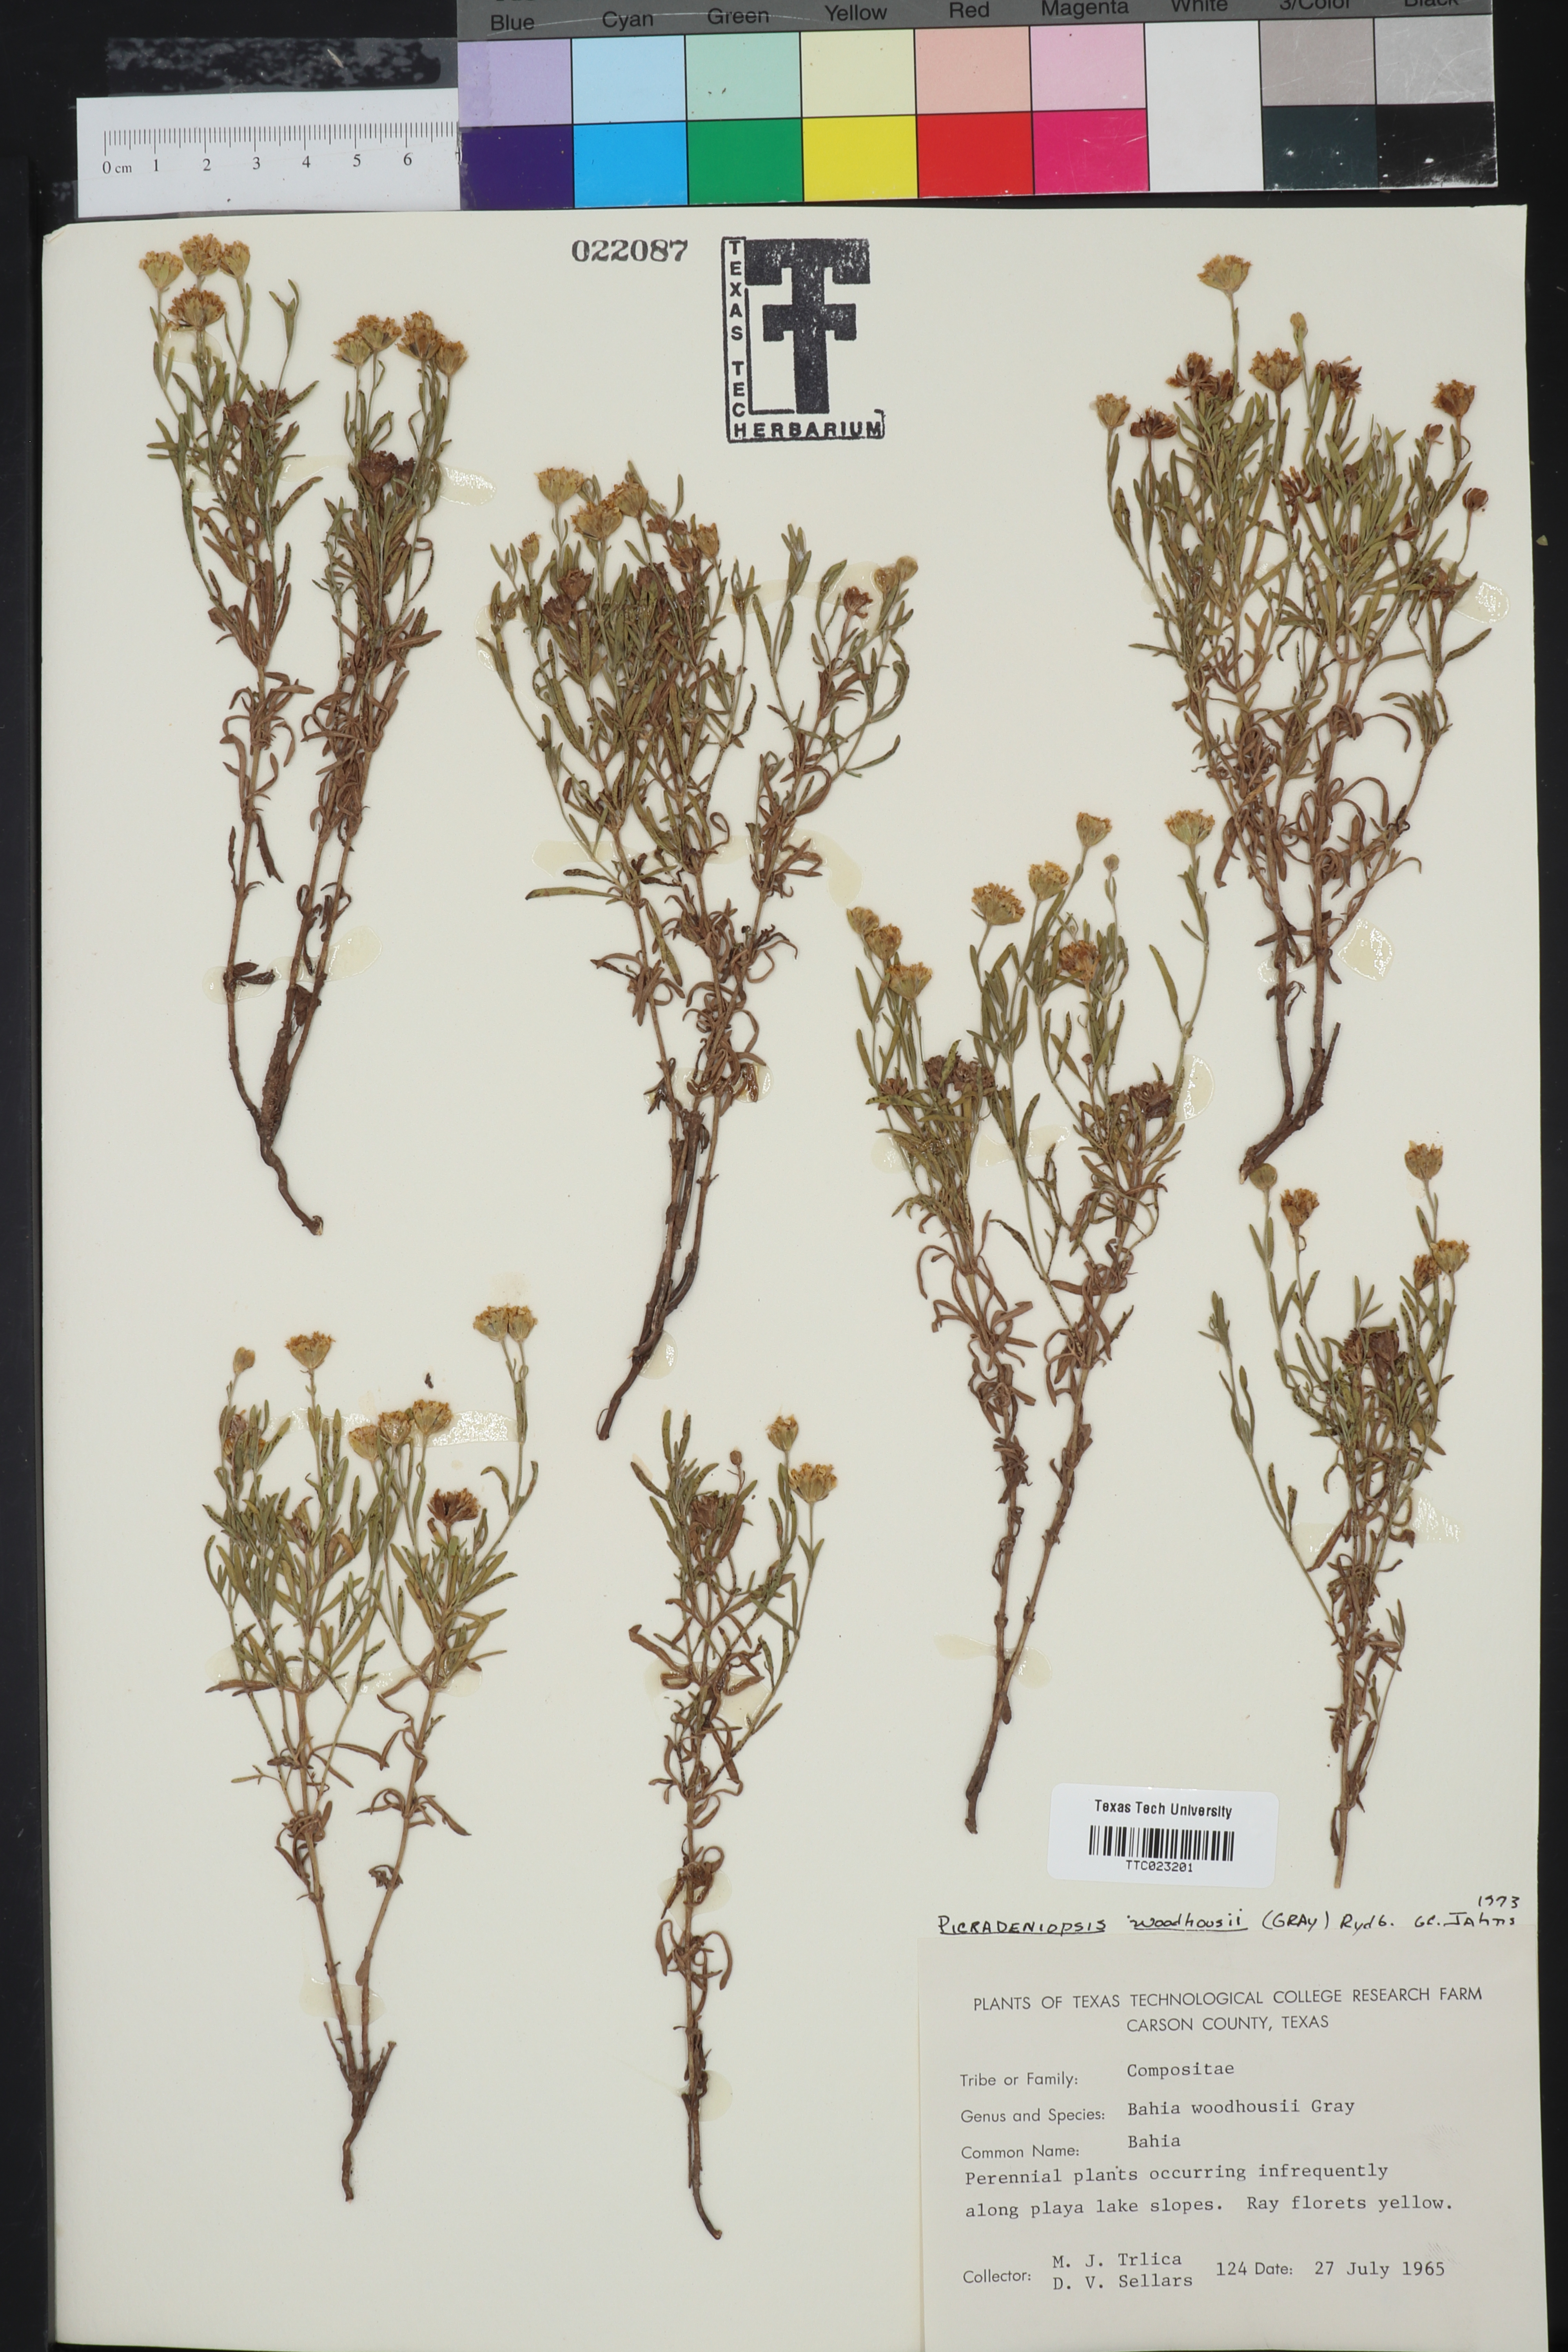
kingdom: Plantae
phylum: Tracheophyta
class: Magnoliopsida
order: Asterales
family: Asteraceae
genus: Picradeniopsis
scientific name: Picradeniopsis woodhousei
